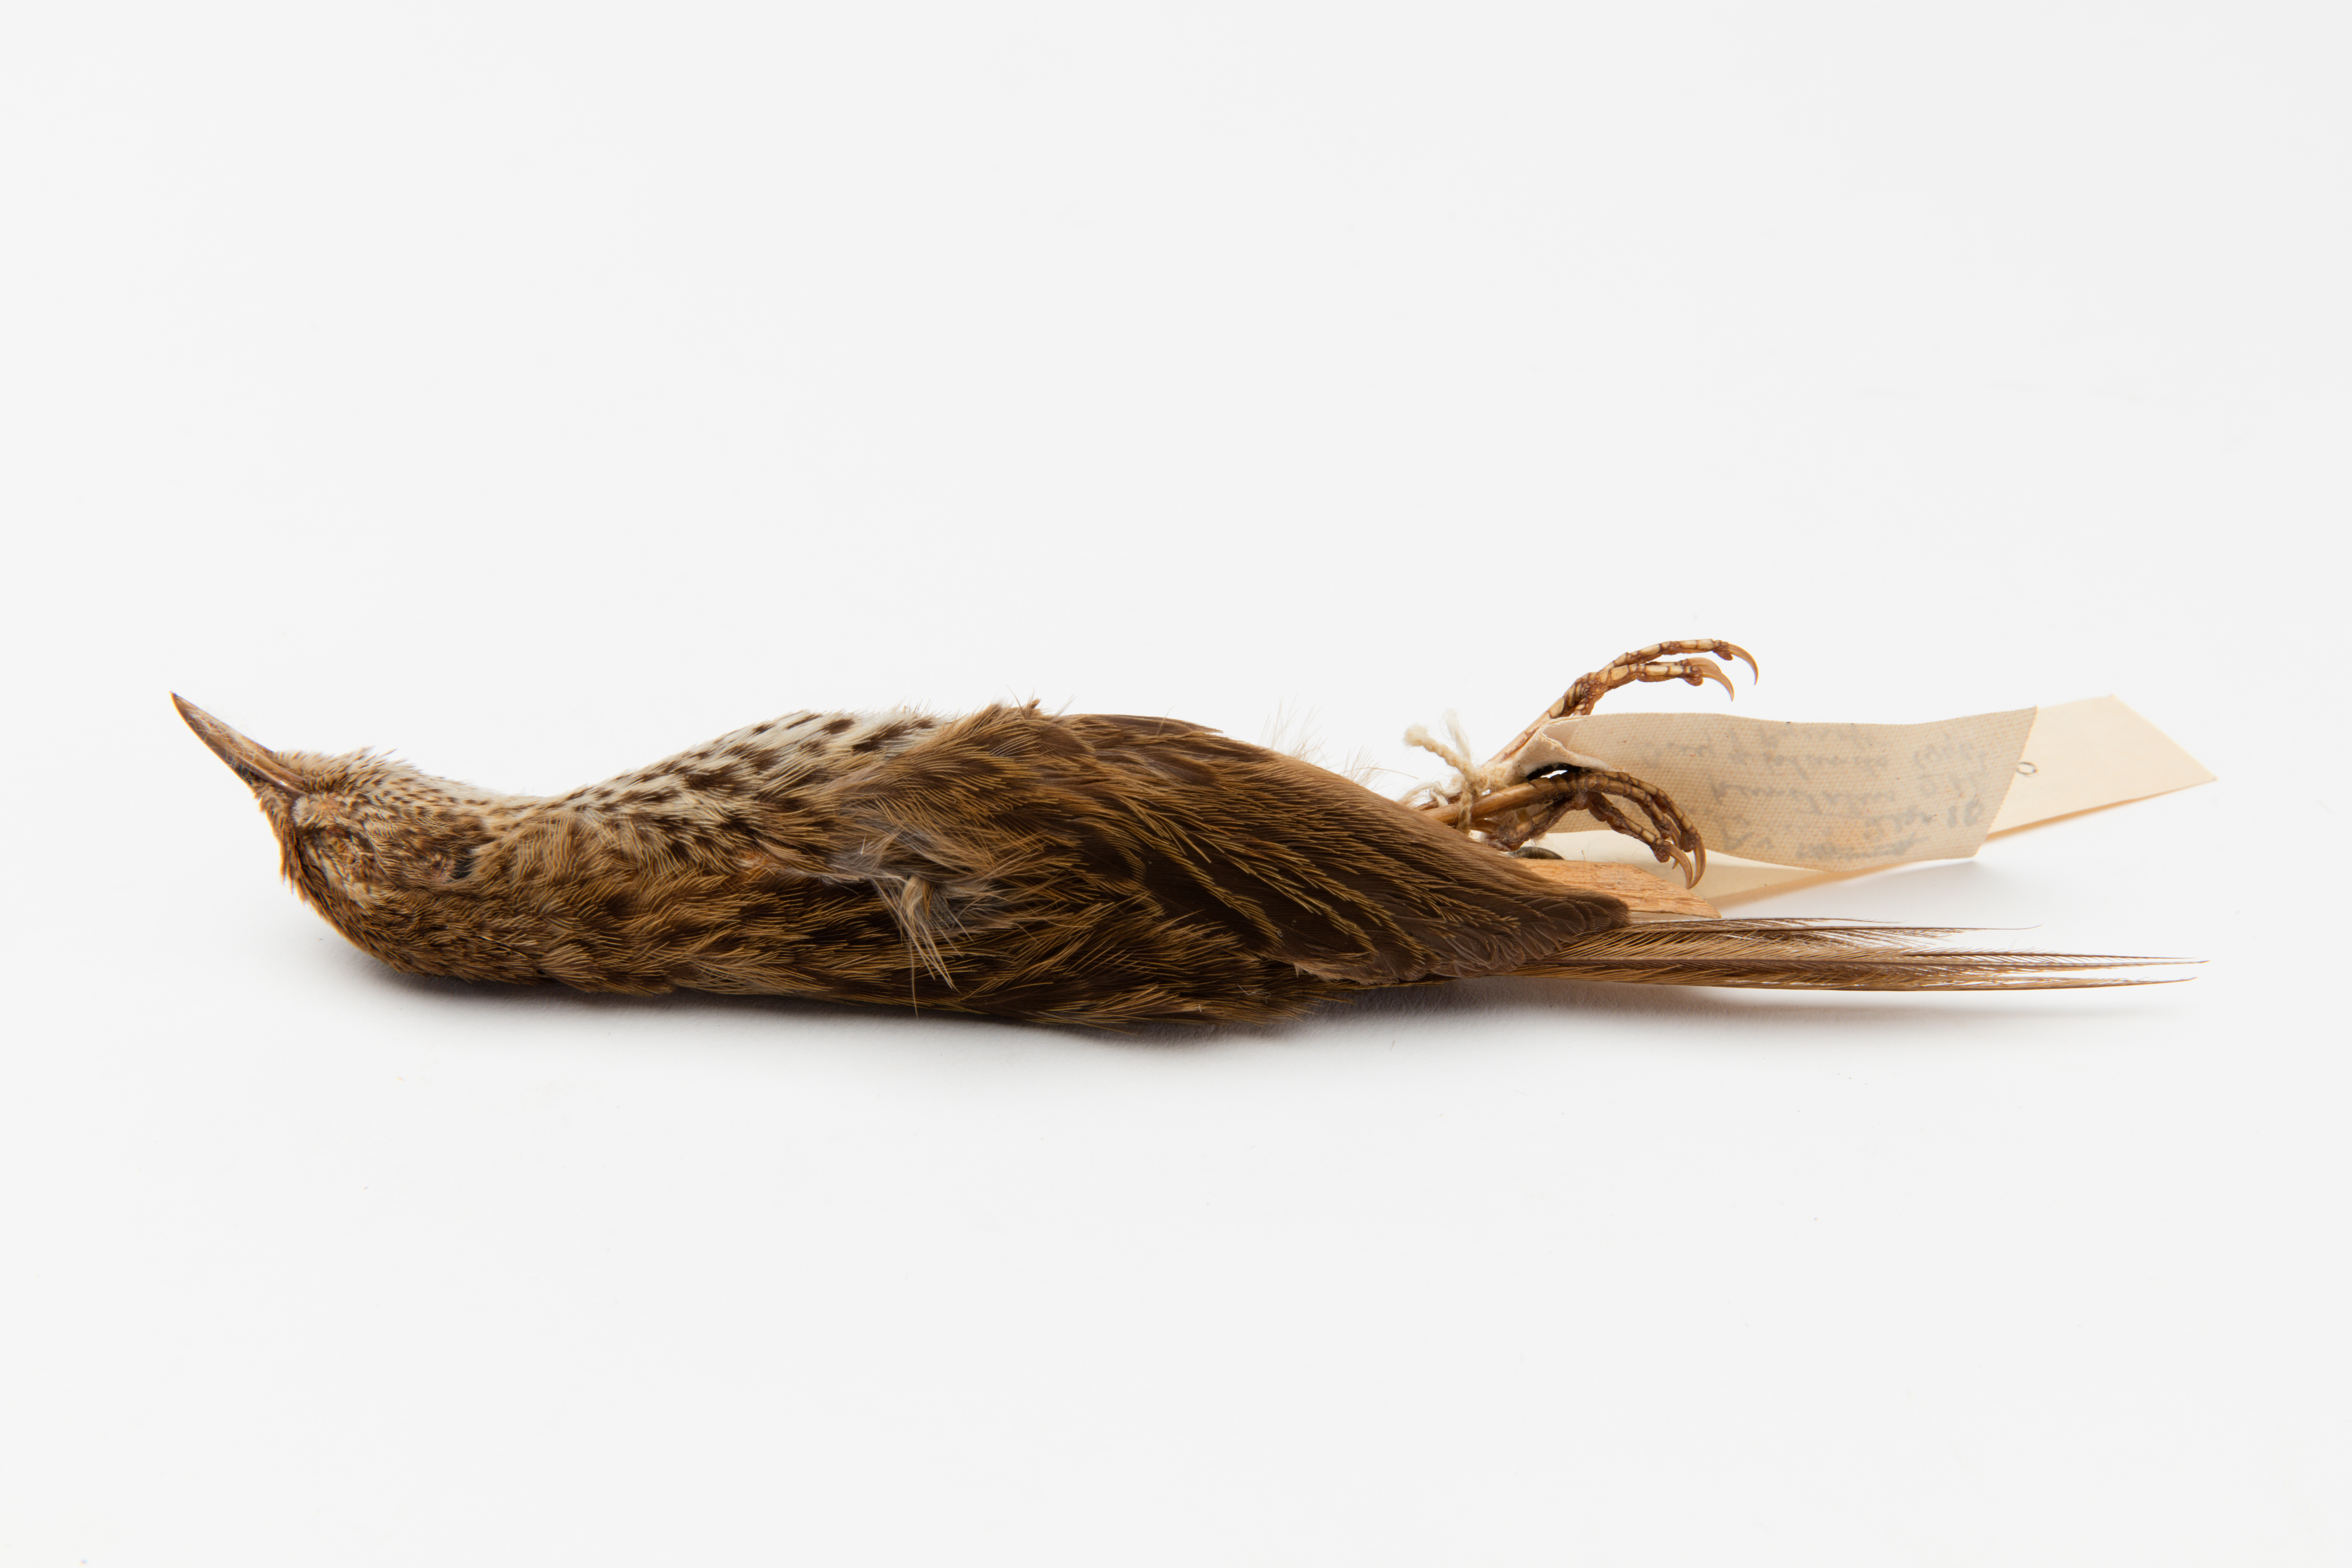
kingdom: Animalia
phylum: Chordata
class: Aves
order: Passeriformes
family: Locustellidae
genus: Megalurus
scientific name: Megalurus punctatus
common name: New zealand fernbird
